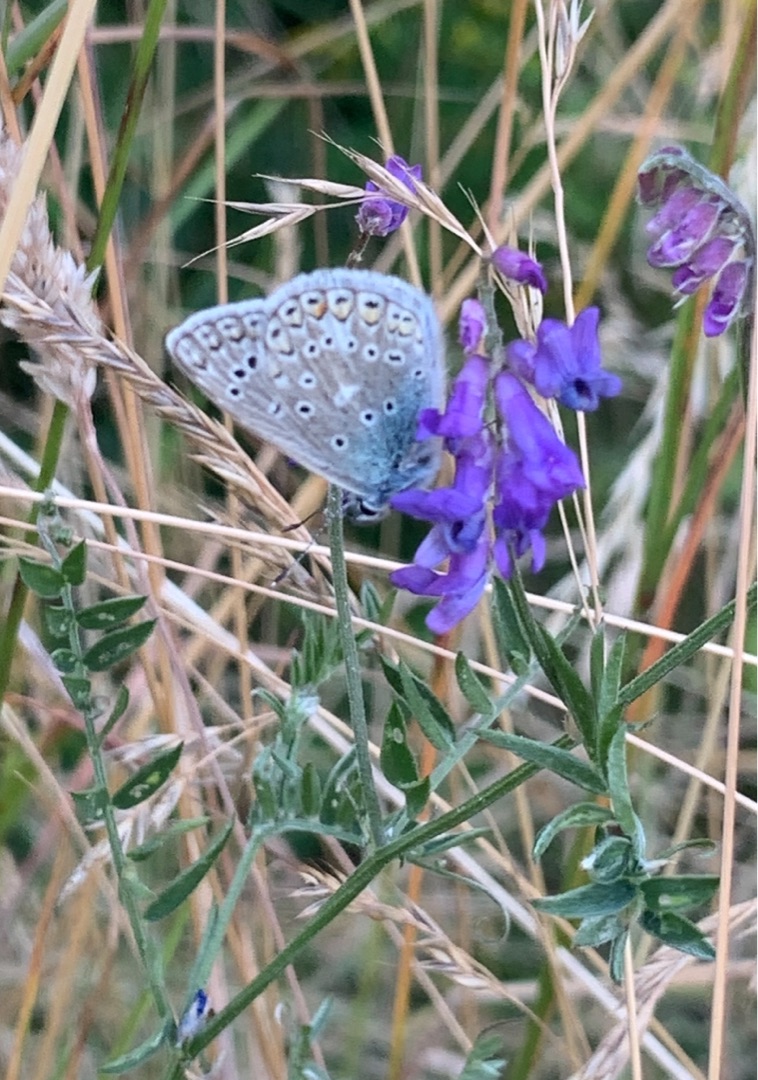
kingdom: Animalia
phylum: Arthropoda
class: Insecta
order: Lepidoptera
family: Lycaenidae
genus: Polyommatus
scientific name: Polyommatus icarus
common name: Almindelig blåfugl
